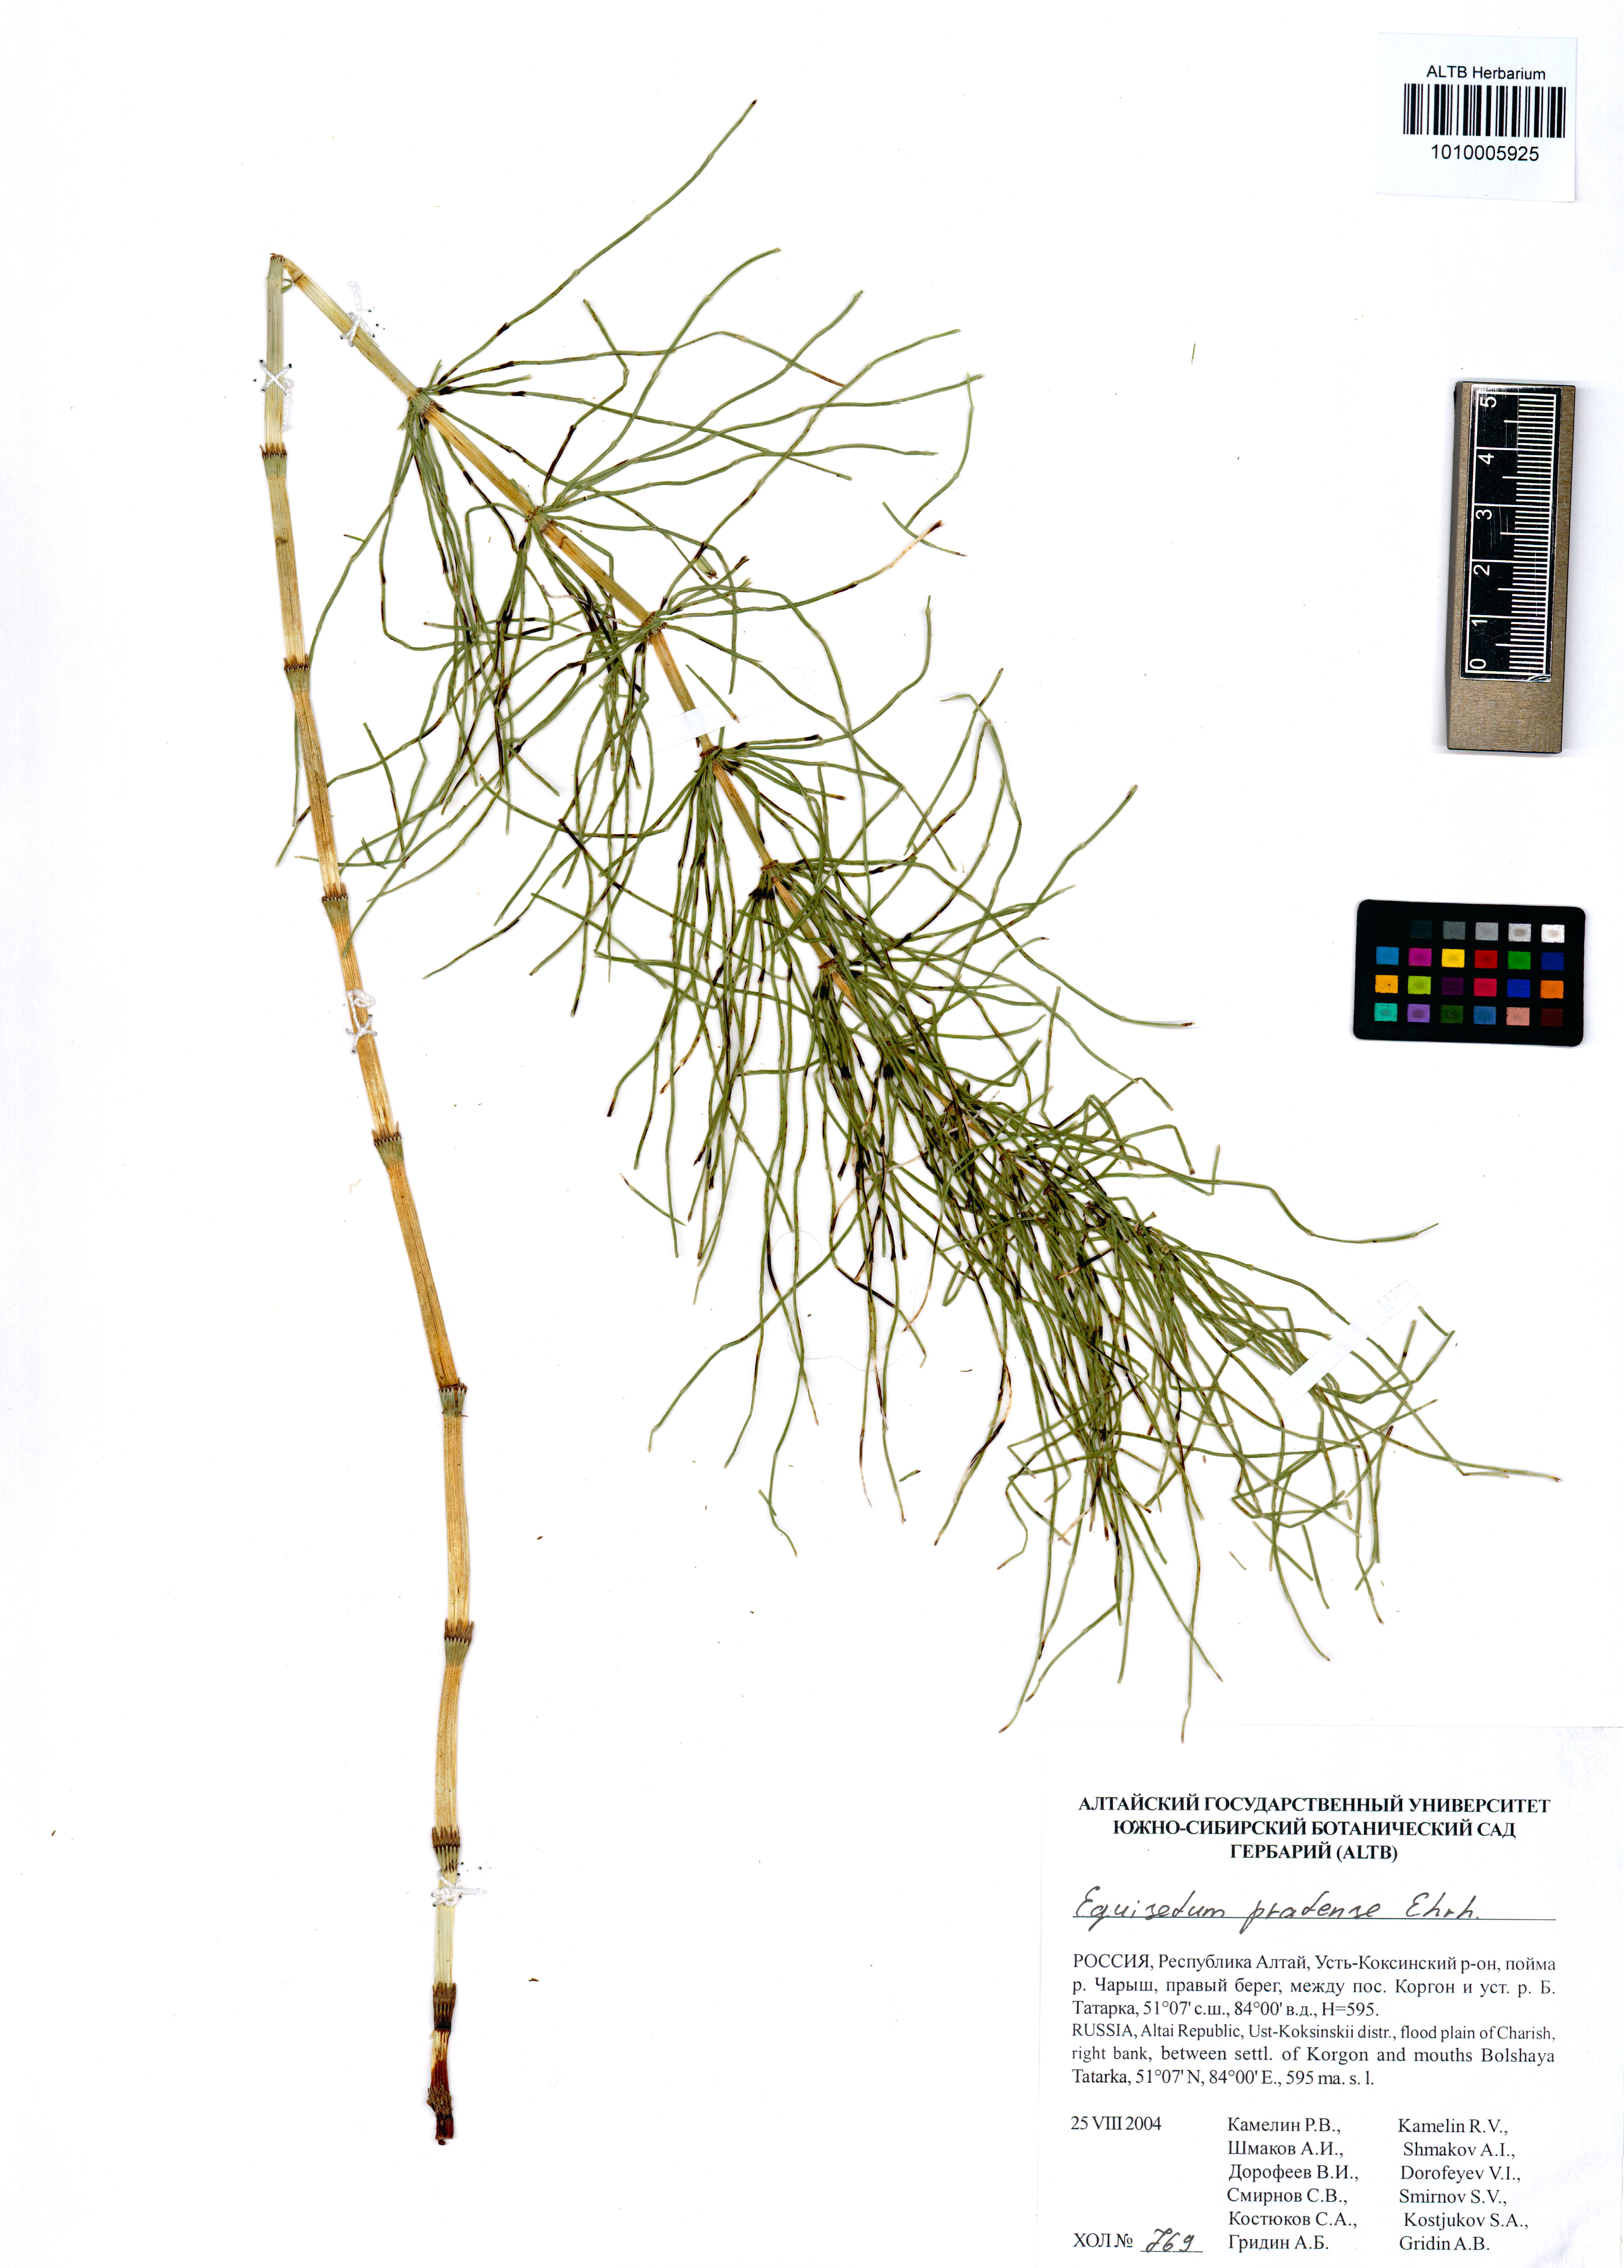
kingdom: Plantae
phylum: Tracheophyta
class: Polypodiopsida
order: Equisetales
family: Equisetaceae
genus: Equisetum
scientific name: Equisetum pratense
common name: Meadow horsetail
